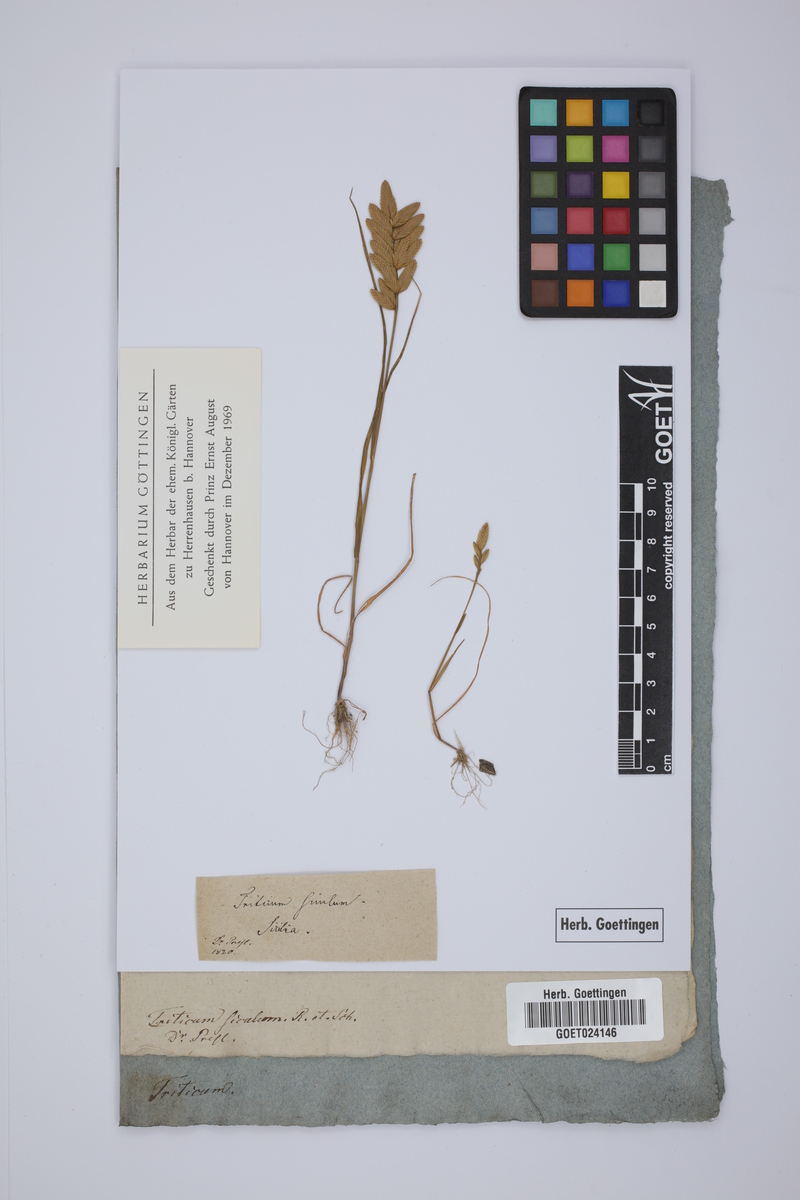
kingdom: Plantae
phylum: Tracheophyta
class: Liliopsida
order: Poales
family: Poaceae
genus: Triticum
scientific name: Triticum turgidum
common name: Rivet wheat
